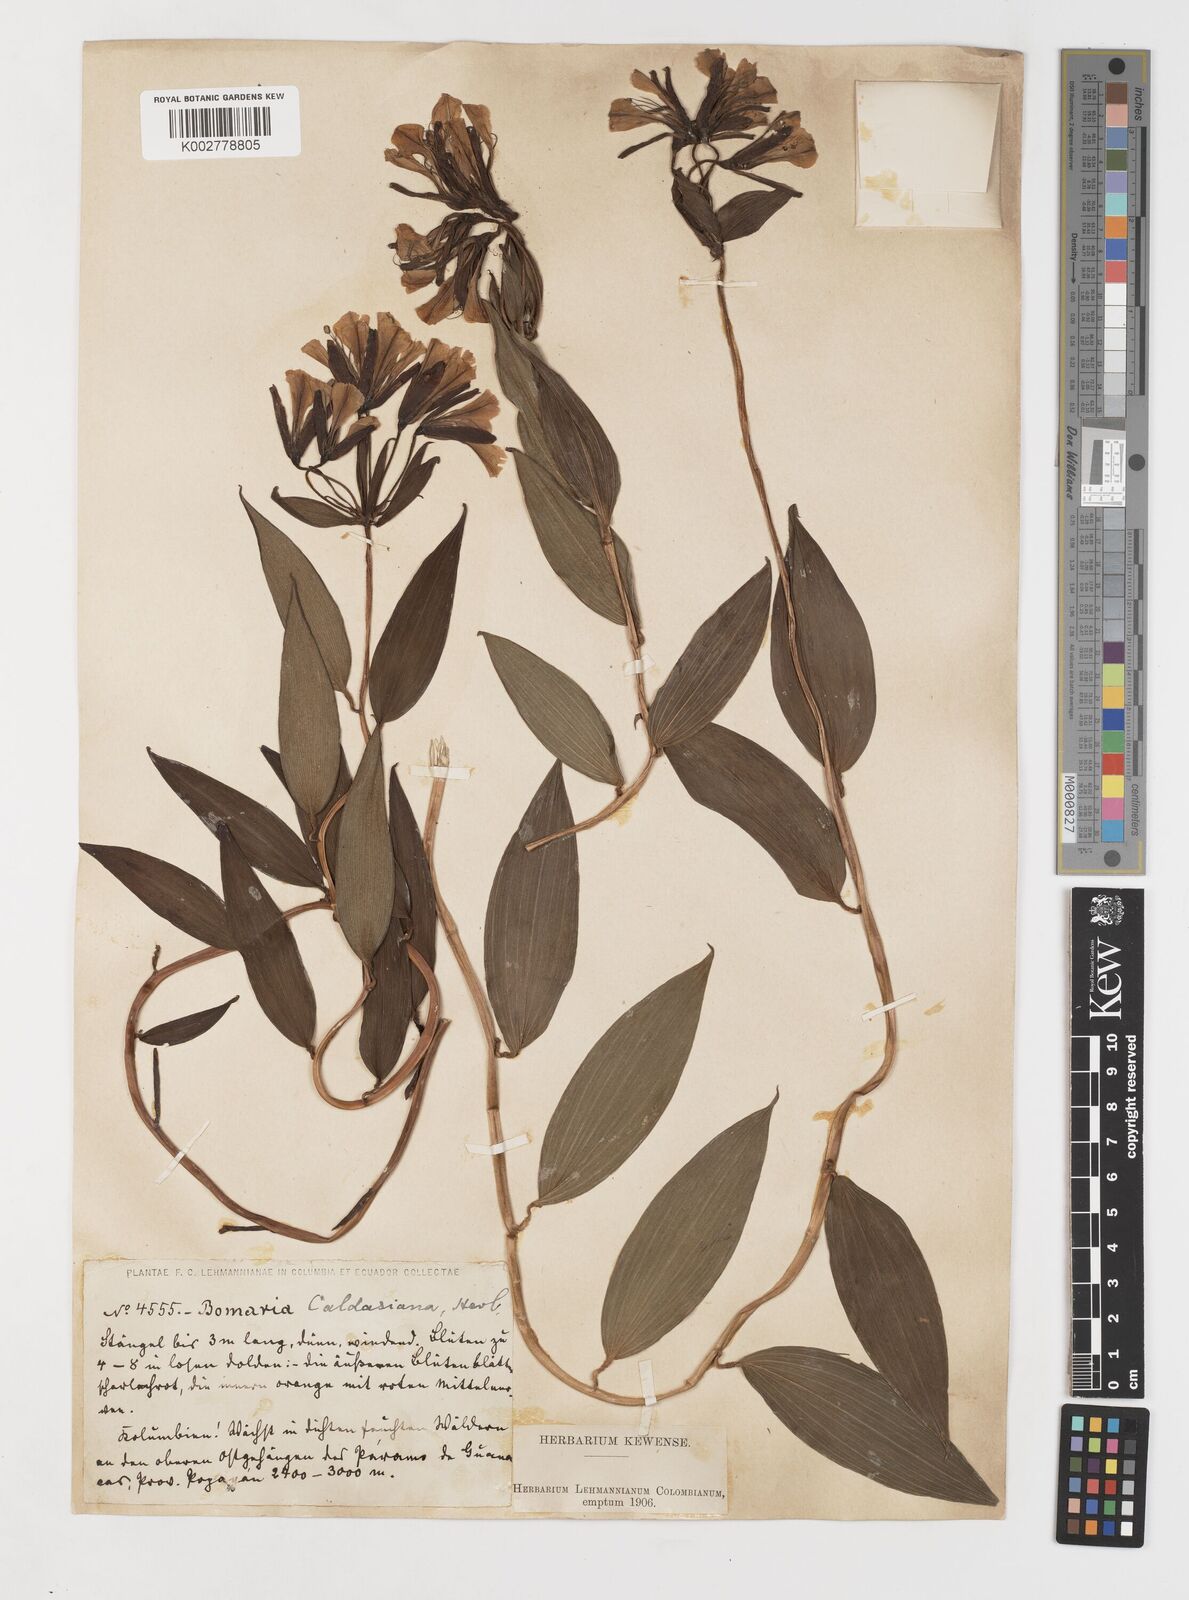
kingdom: Plantae
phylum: Tracheophyta
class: Liliopsida
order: Liliales
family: Alstroemeriaceae
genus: Bomarea
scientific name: Bomarea hirsuta
